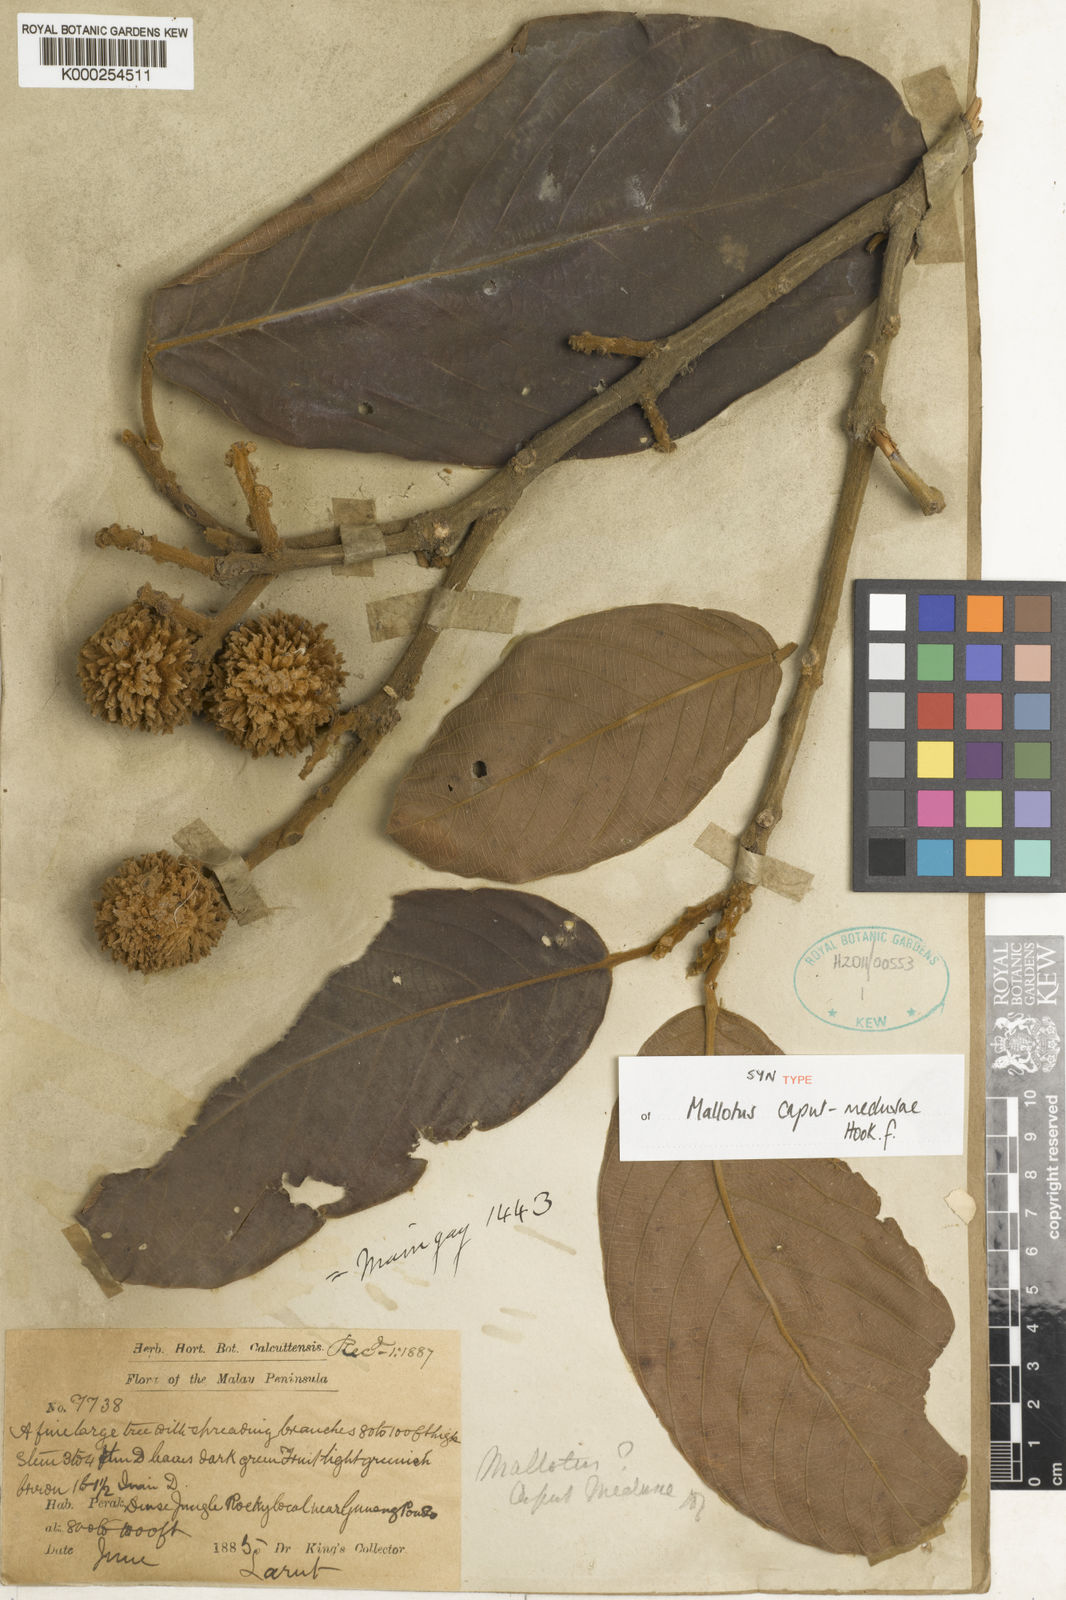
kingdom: Plantae
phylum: Tracheophyta
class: Magnoliopsida
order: Malpighiales
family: Euphorbiaceae
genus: Ptychopyxis
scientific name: Ptychopyxis caput-medusae
